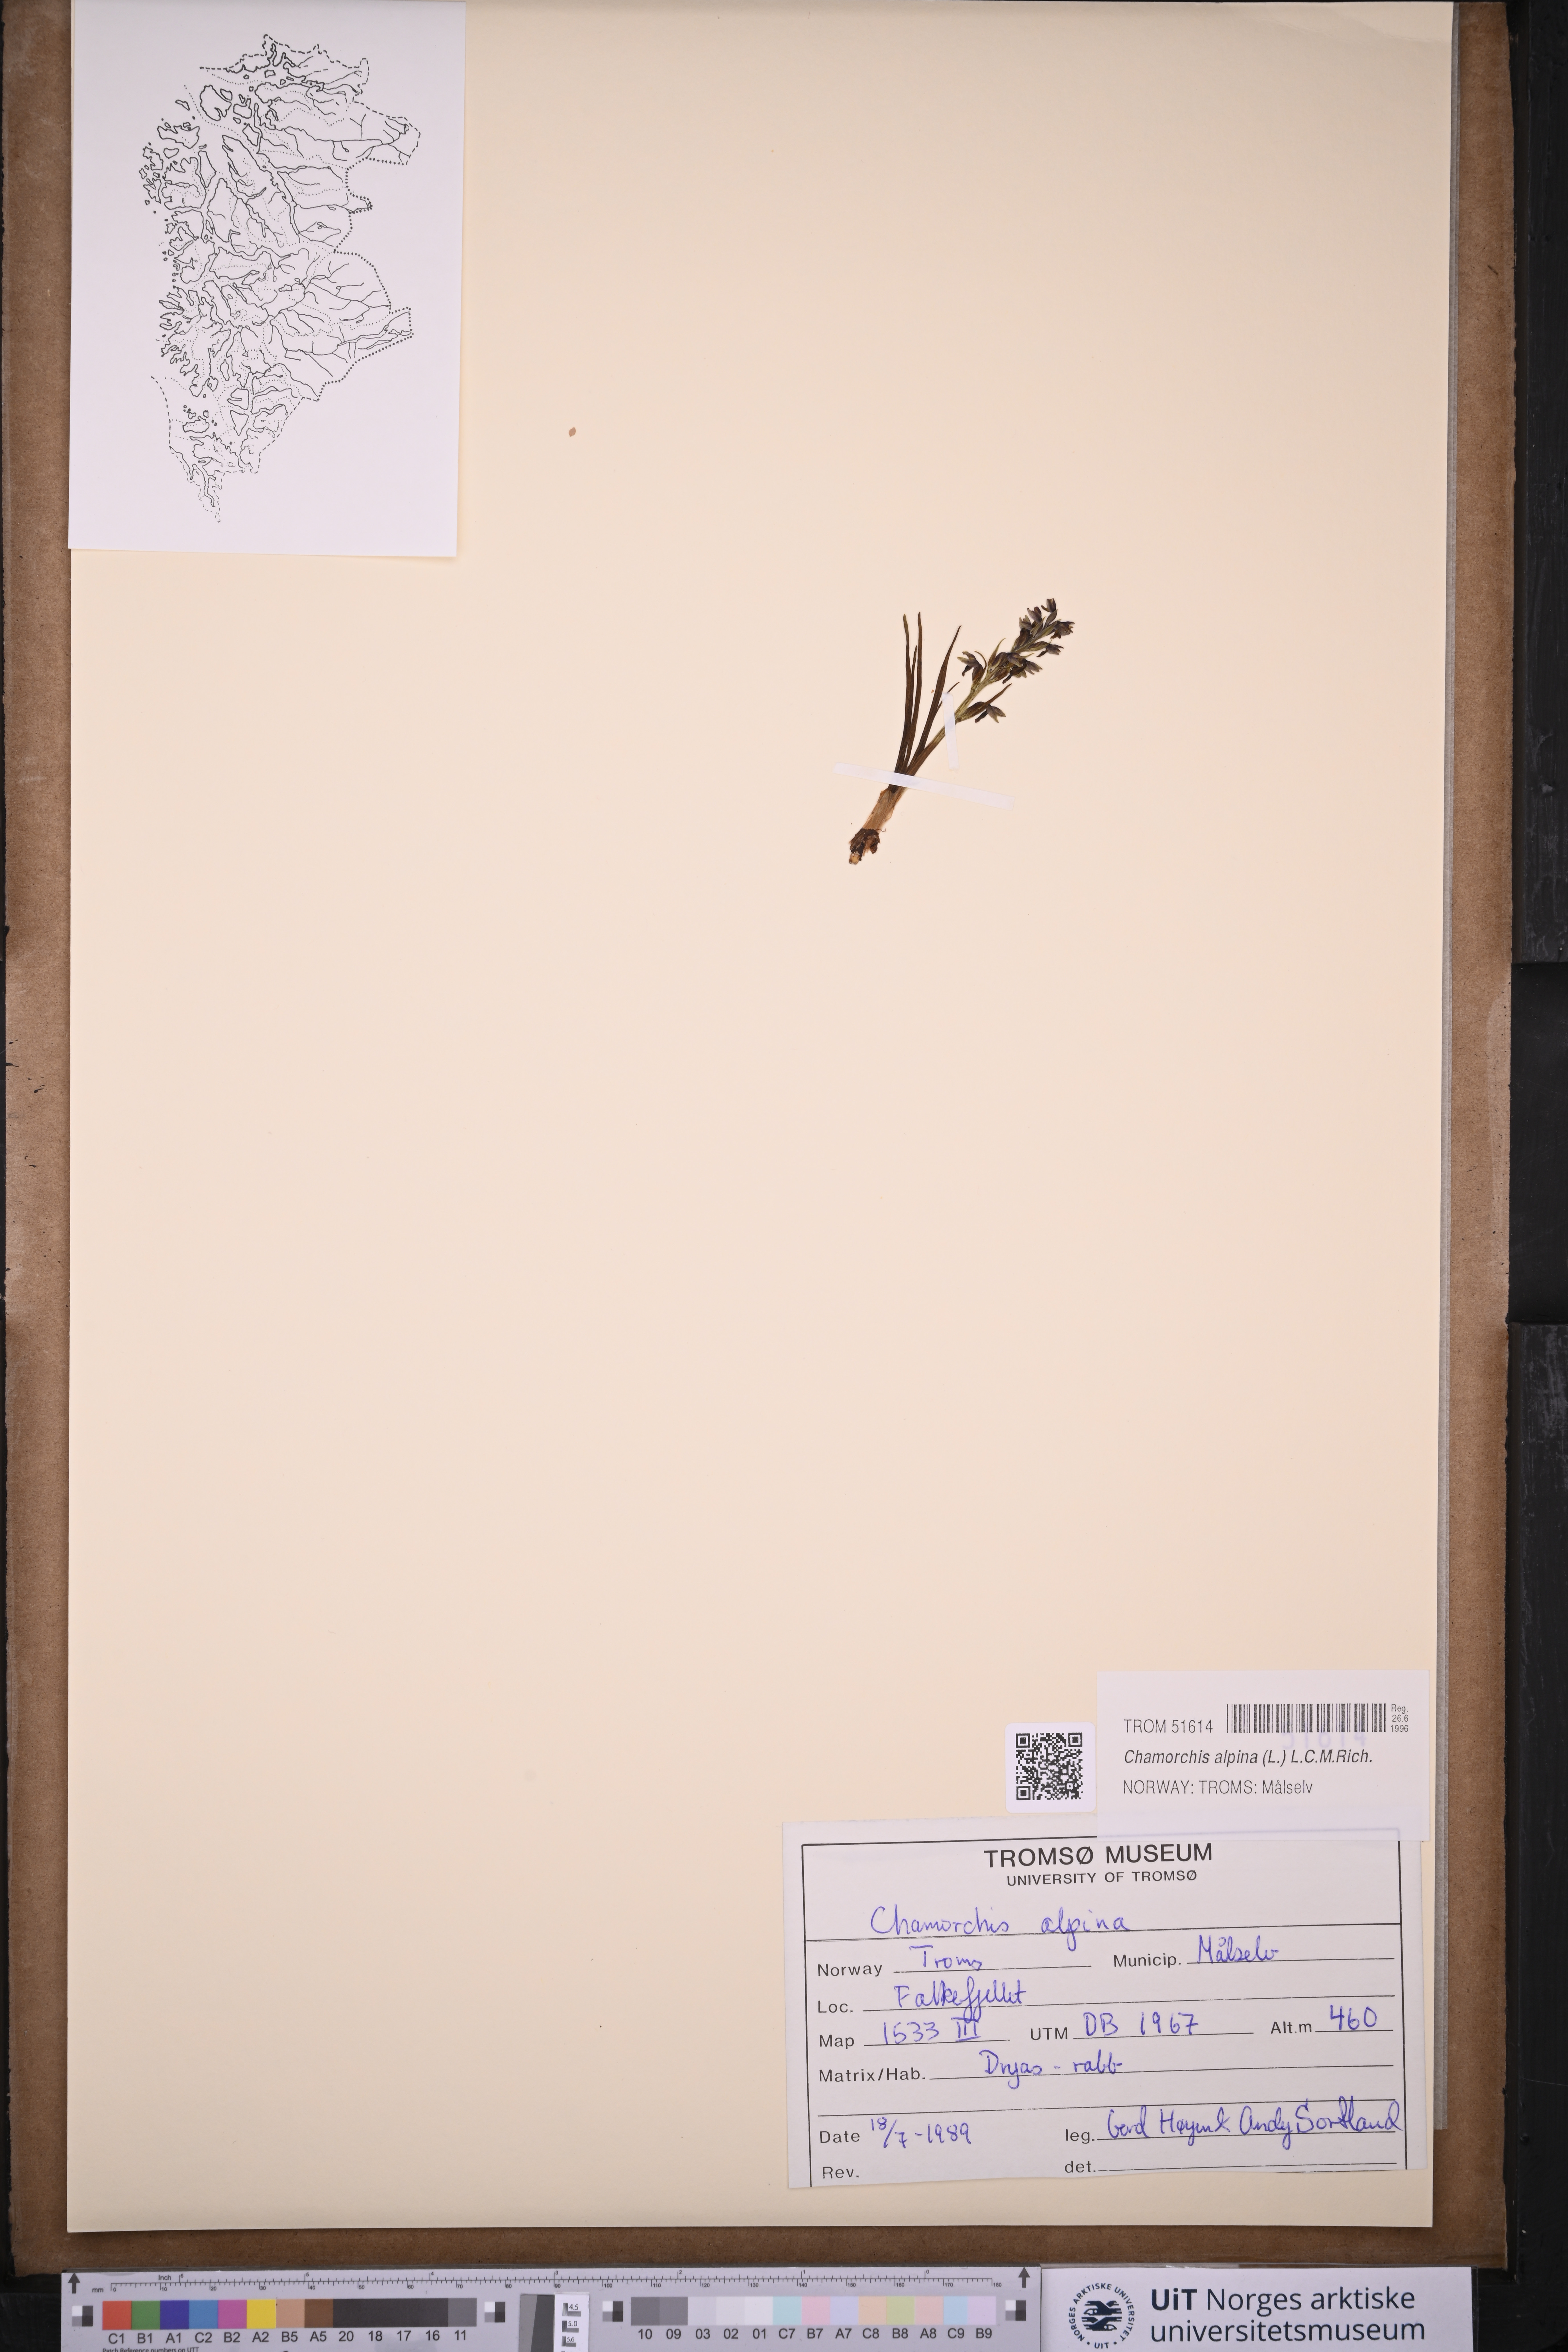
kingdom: Plantae
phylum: Tracheophyta
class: Liliopsida
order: Asparagales
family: Orchidaceae
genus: Chamorchis
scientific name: Chamorchis alpina
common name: Alpine chamorchis
